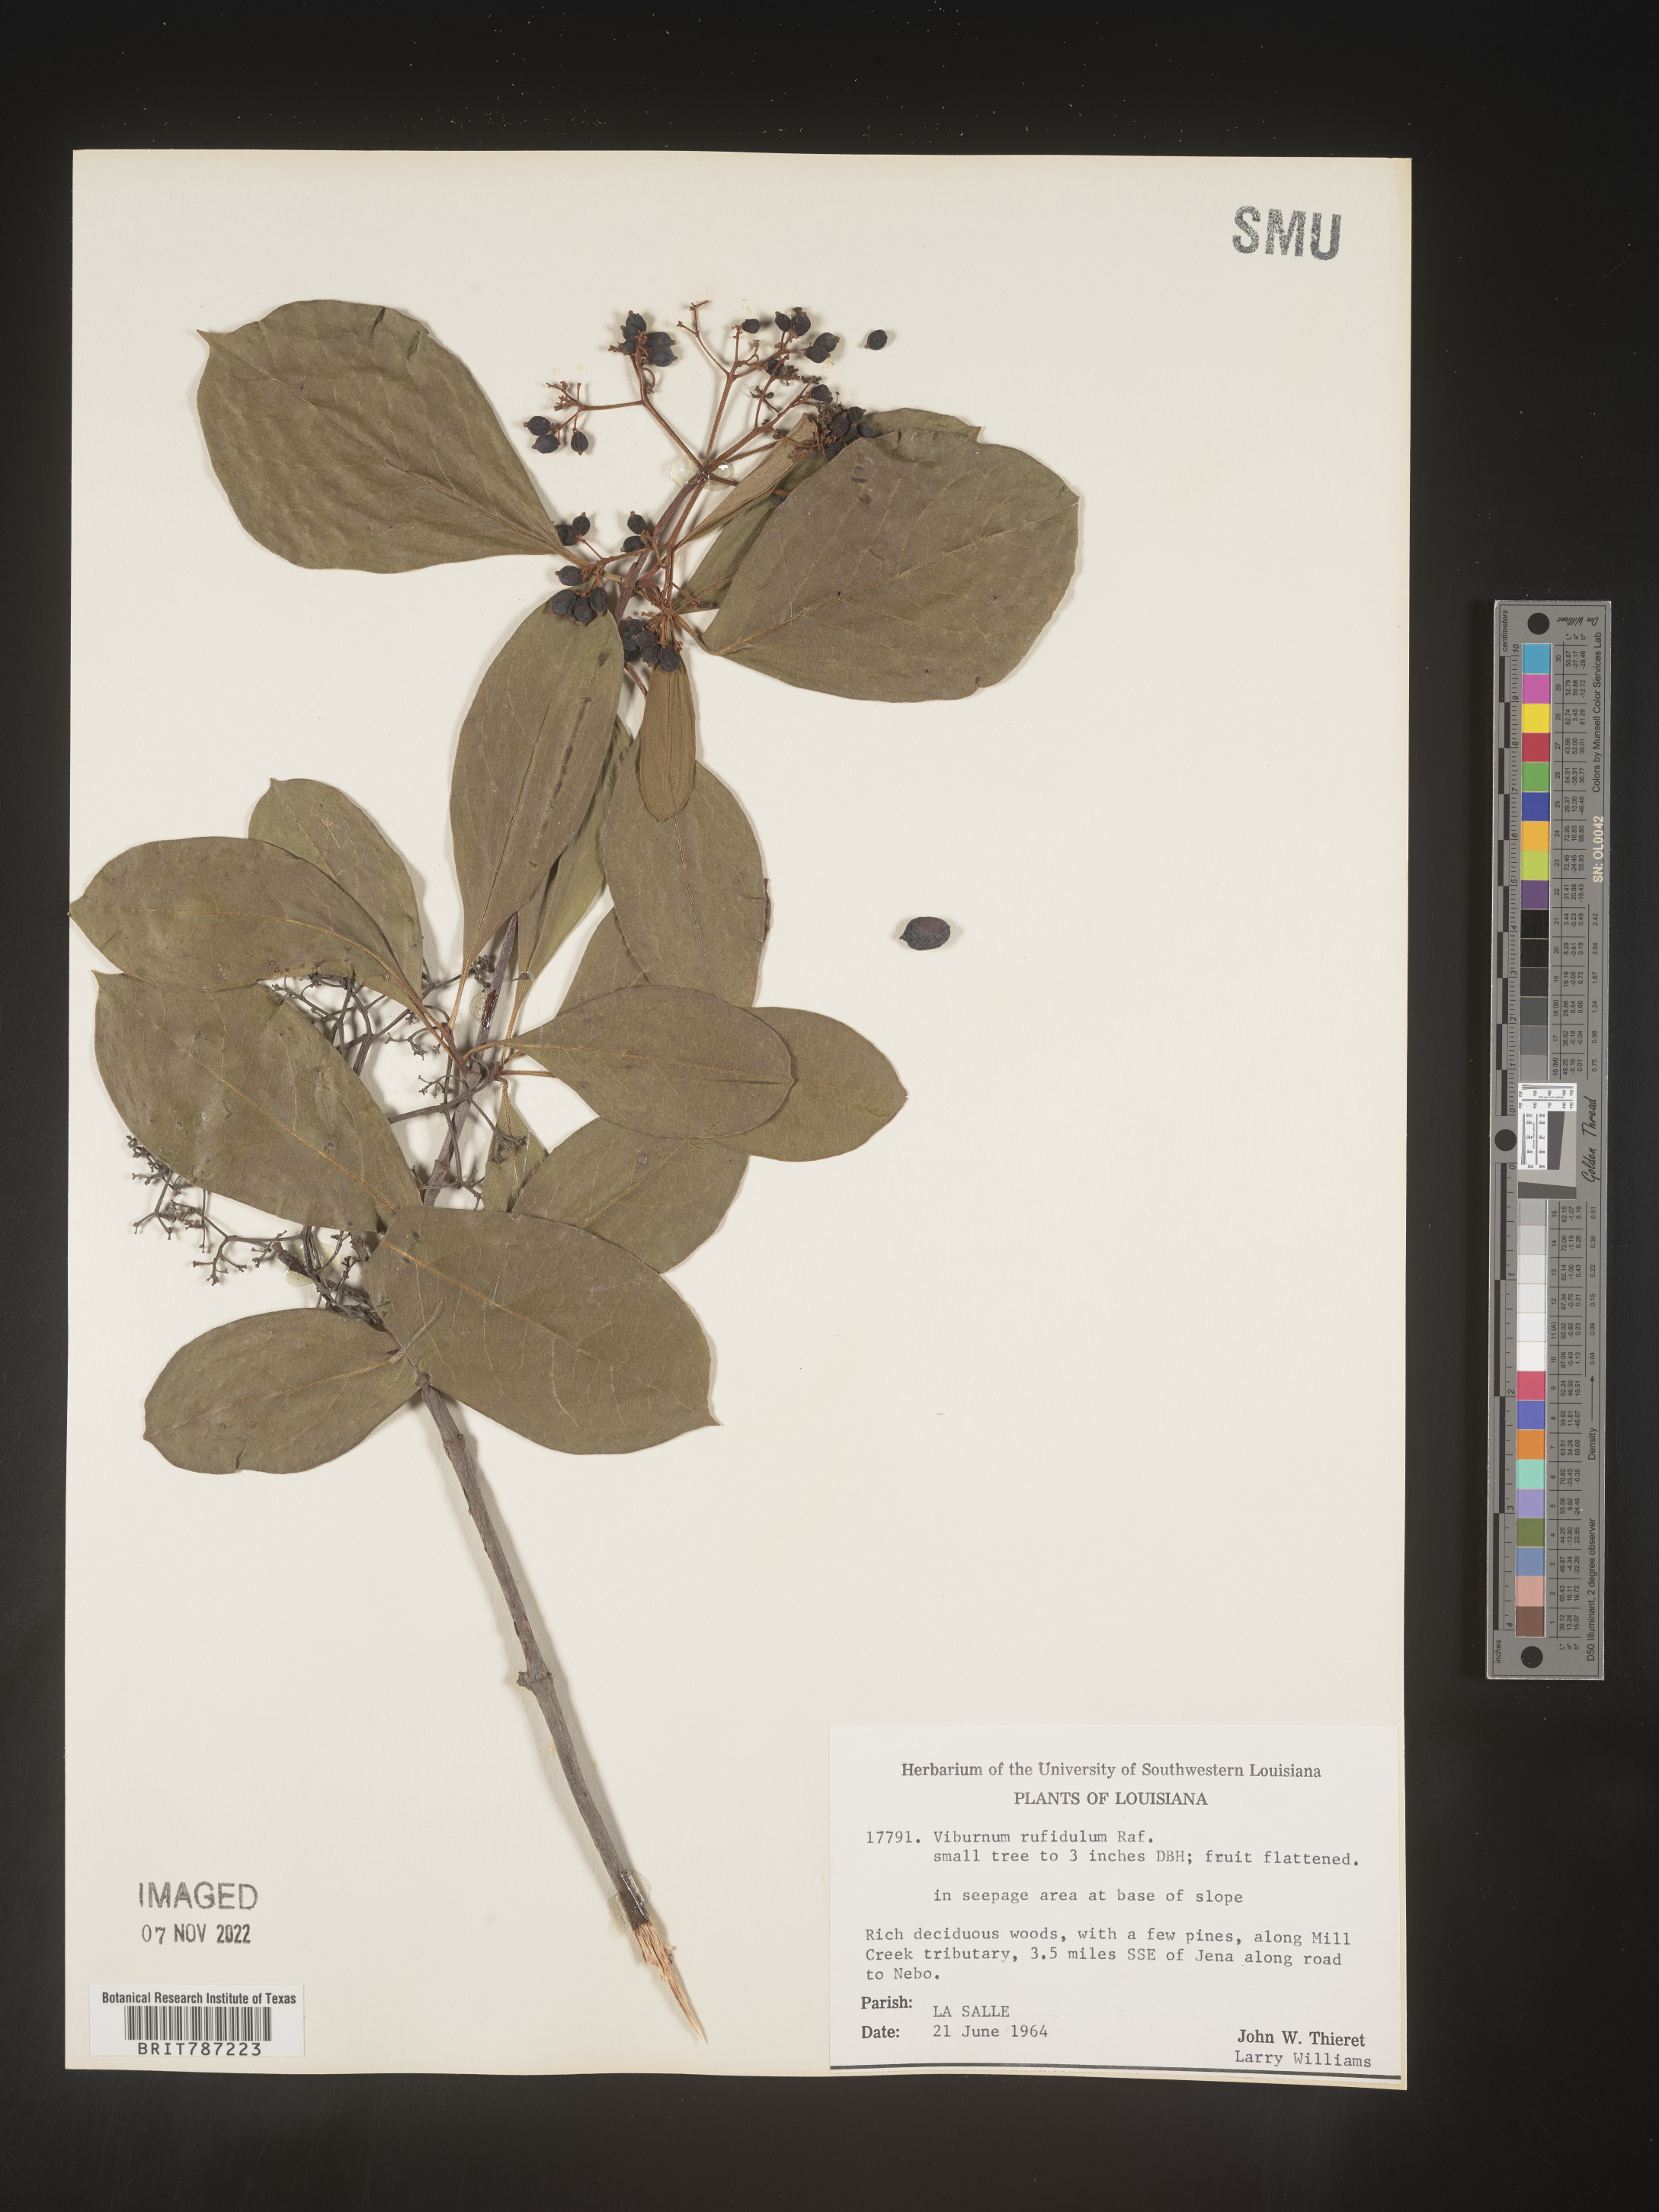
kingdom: Plantae
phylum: Tracheophyta
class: Magnoliopsida
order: Dipsacales
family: Viburnaceae
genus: Viburnum
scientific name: Viburnum rufidulum
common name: Blue haw
